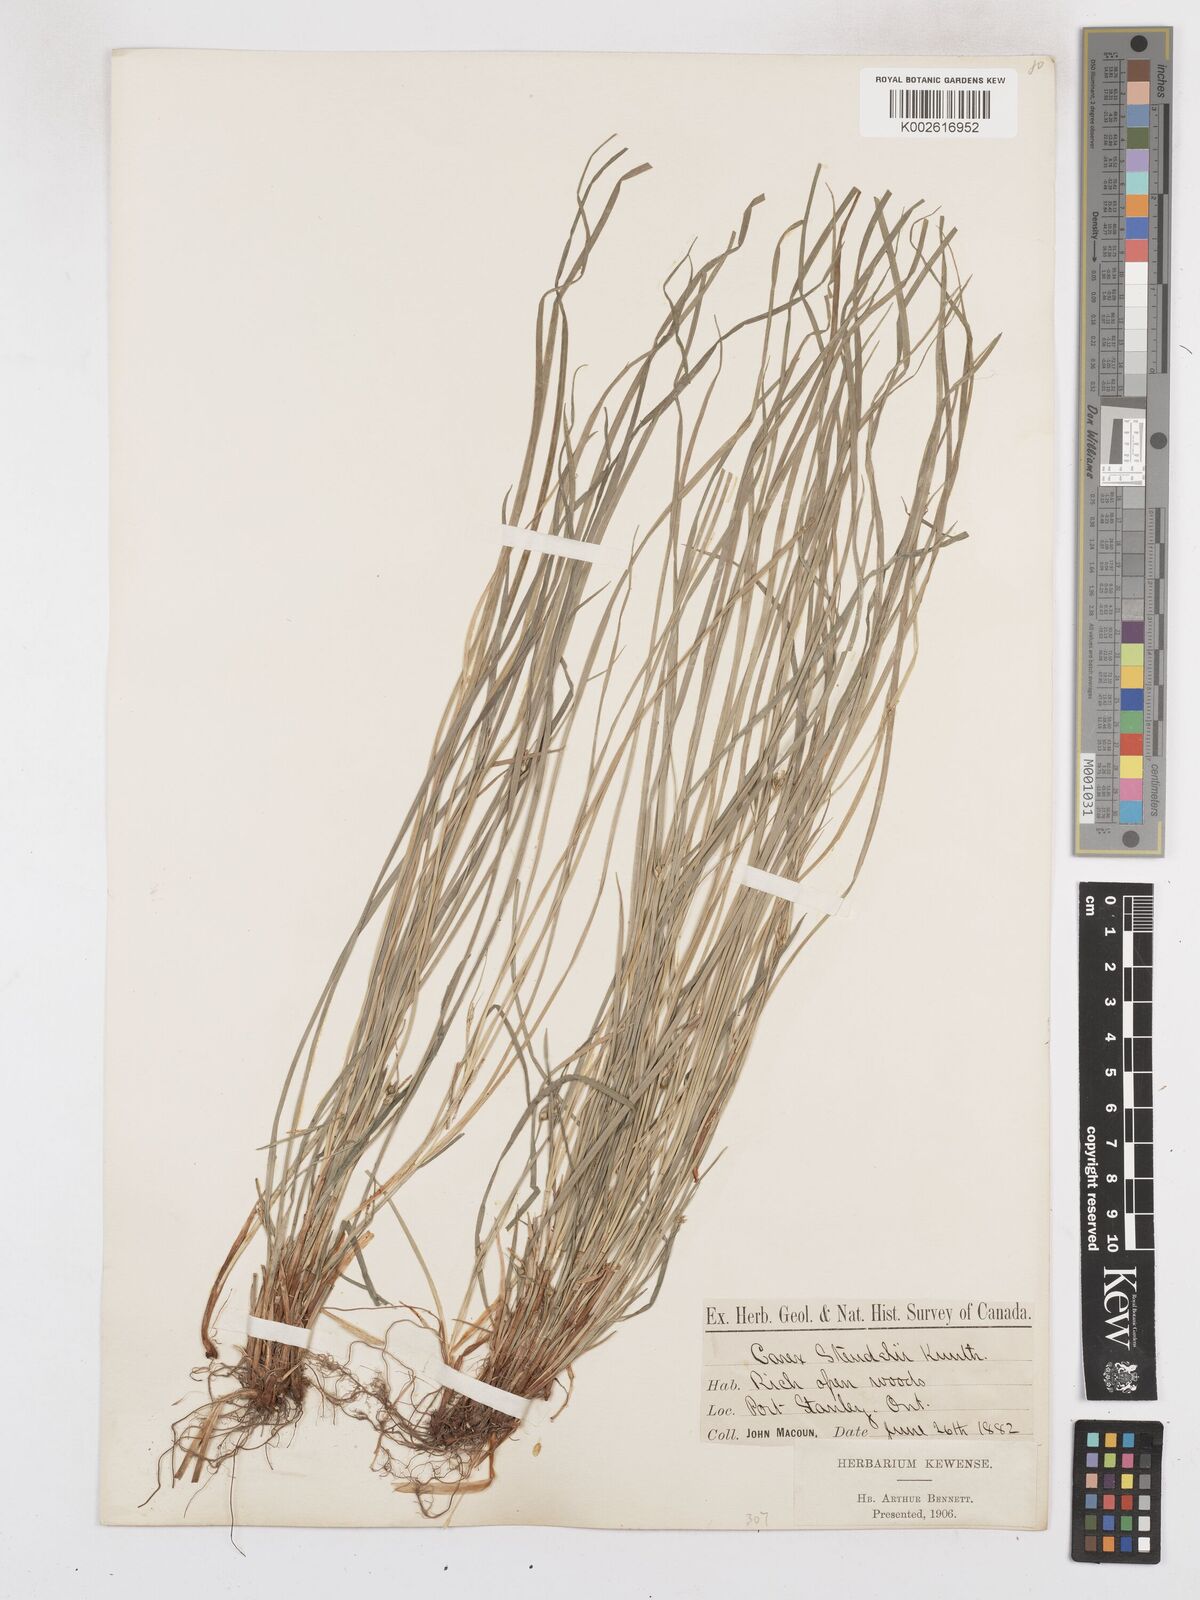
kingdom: Plantae
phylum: Tracheophyta
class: Liliopsida
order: Poales
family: Cyperaceae
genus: Carex
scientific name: Carex jamesii
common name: Grass sedge
